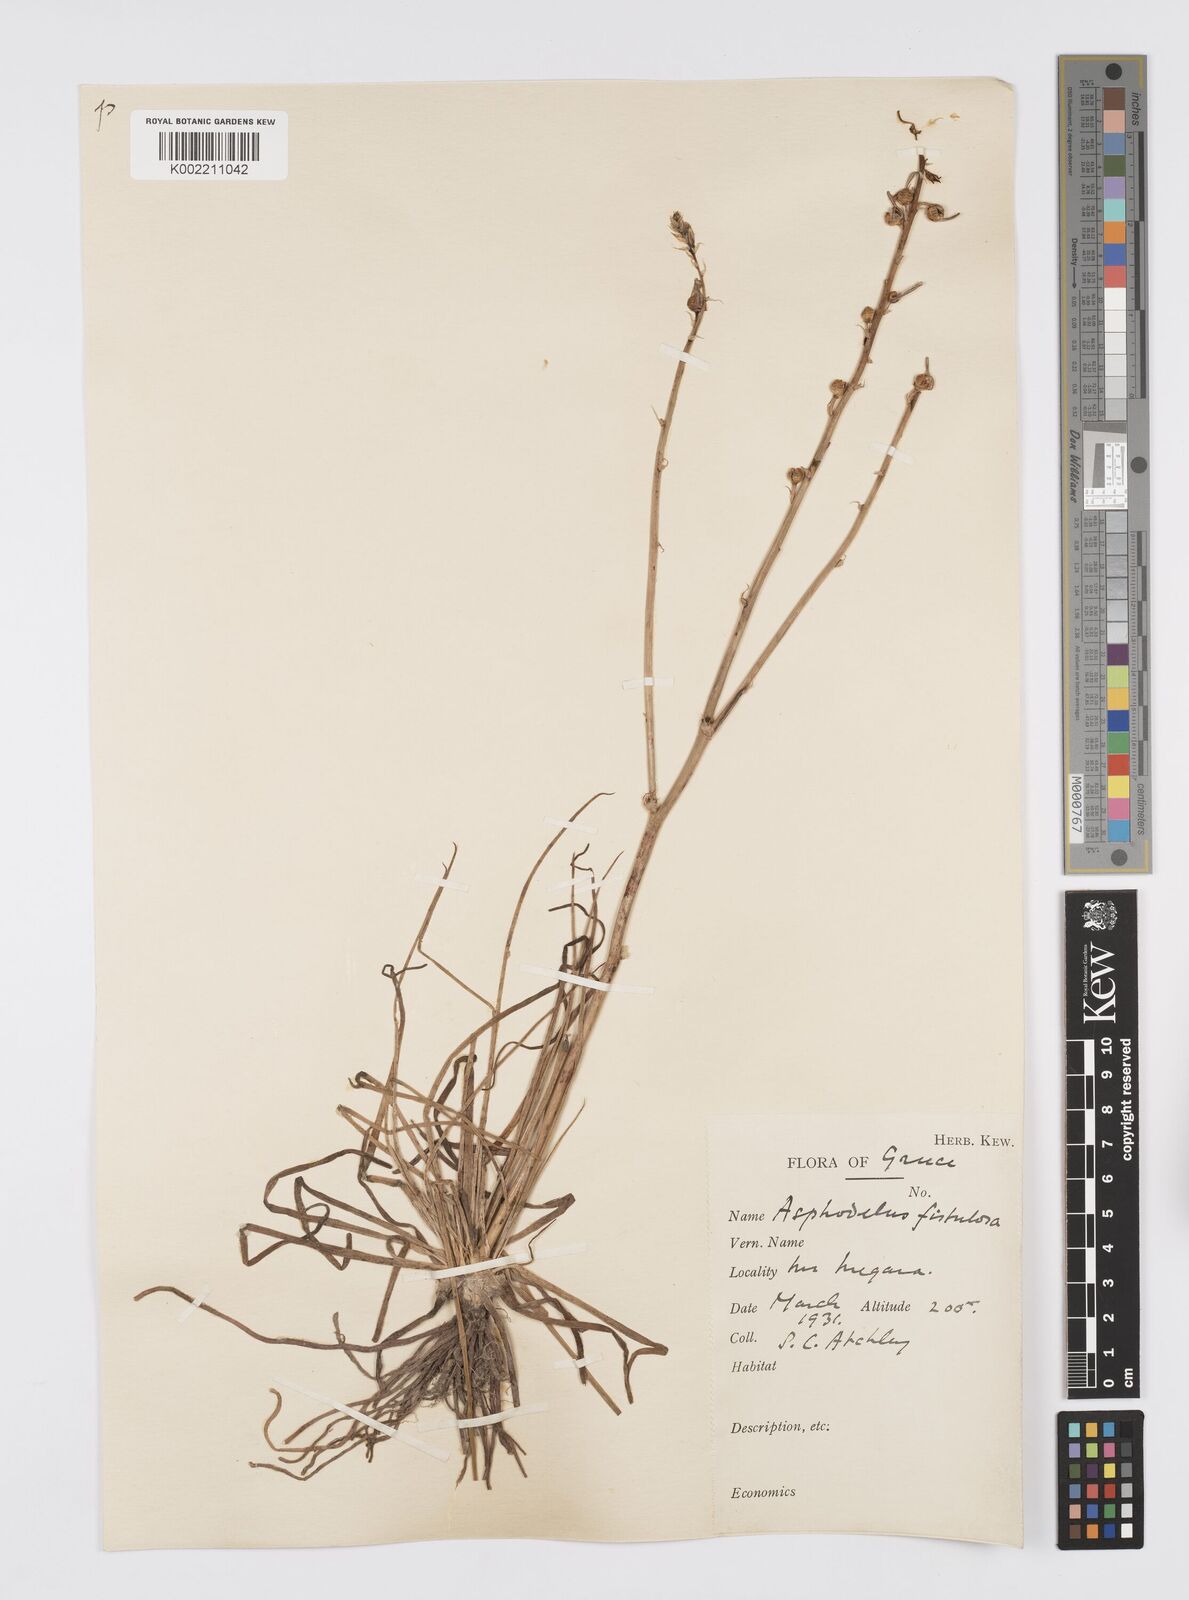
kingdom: Plantae
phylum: Tracheophyta
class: Liliopsida
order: Asparagales
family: Asphodelaceae
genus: Asphodelus
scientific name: Asphodelus fistulosus
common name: Onionweed
